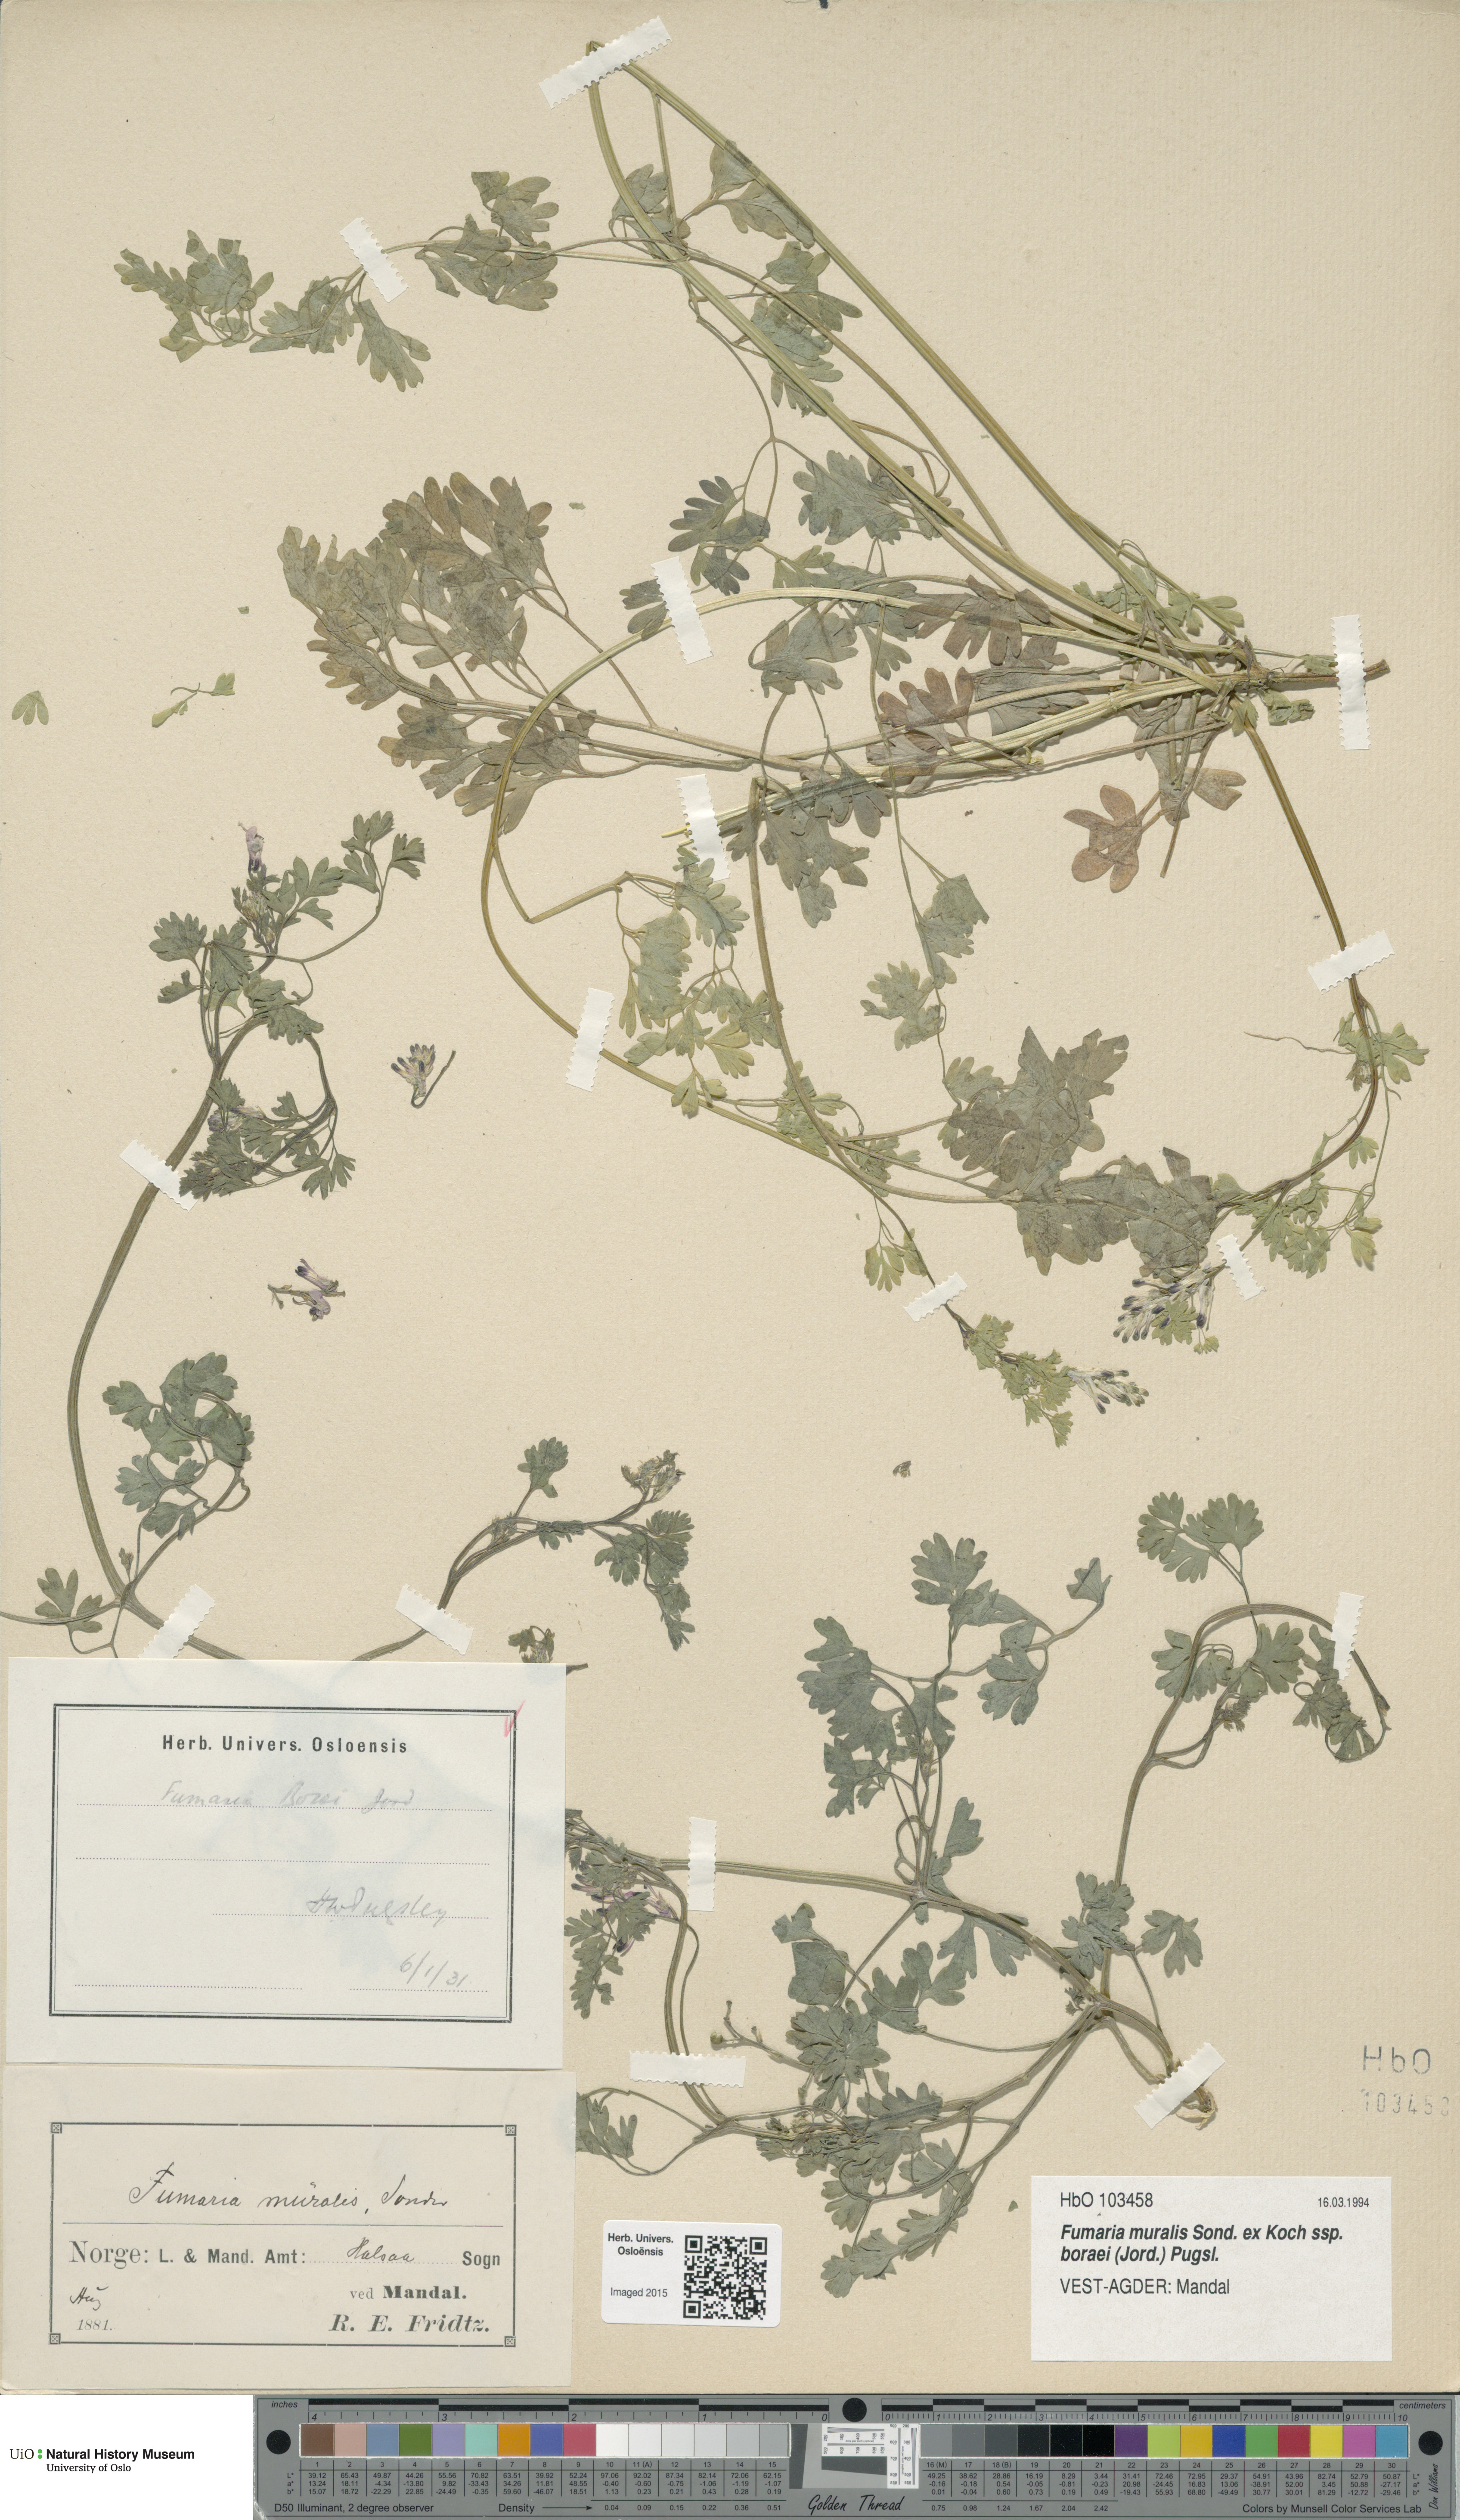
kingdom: Plantae
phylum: Tracheophyta
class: Magnoliopsida
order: Ranunculales
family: Papaveraceae
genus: Fumaria
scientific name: Fumaria muralis
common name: Common ramping-fumitory
